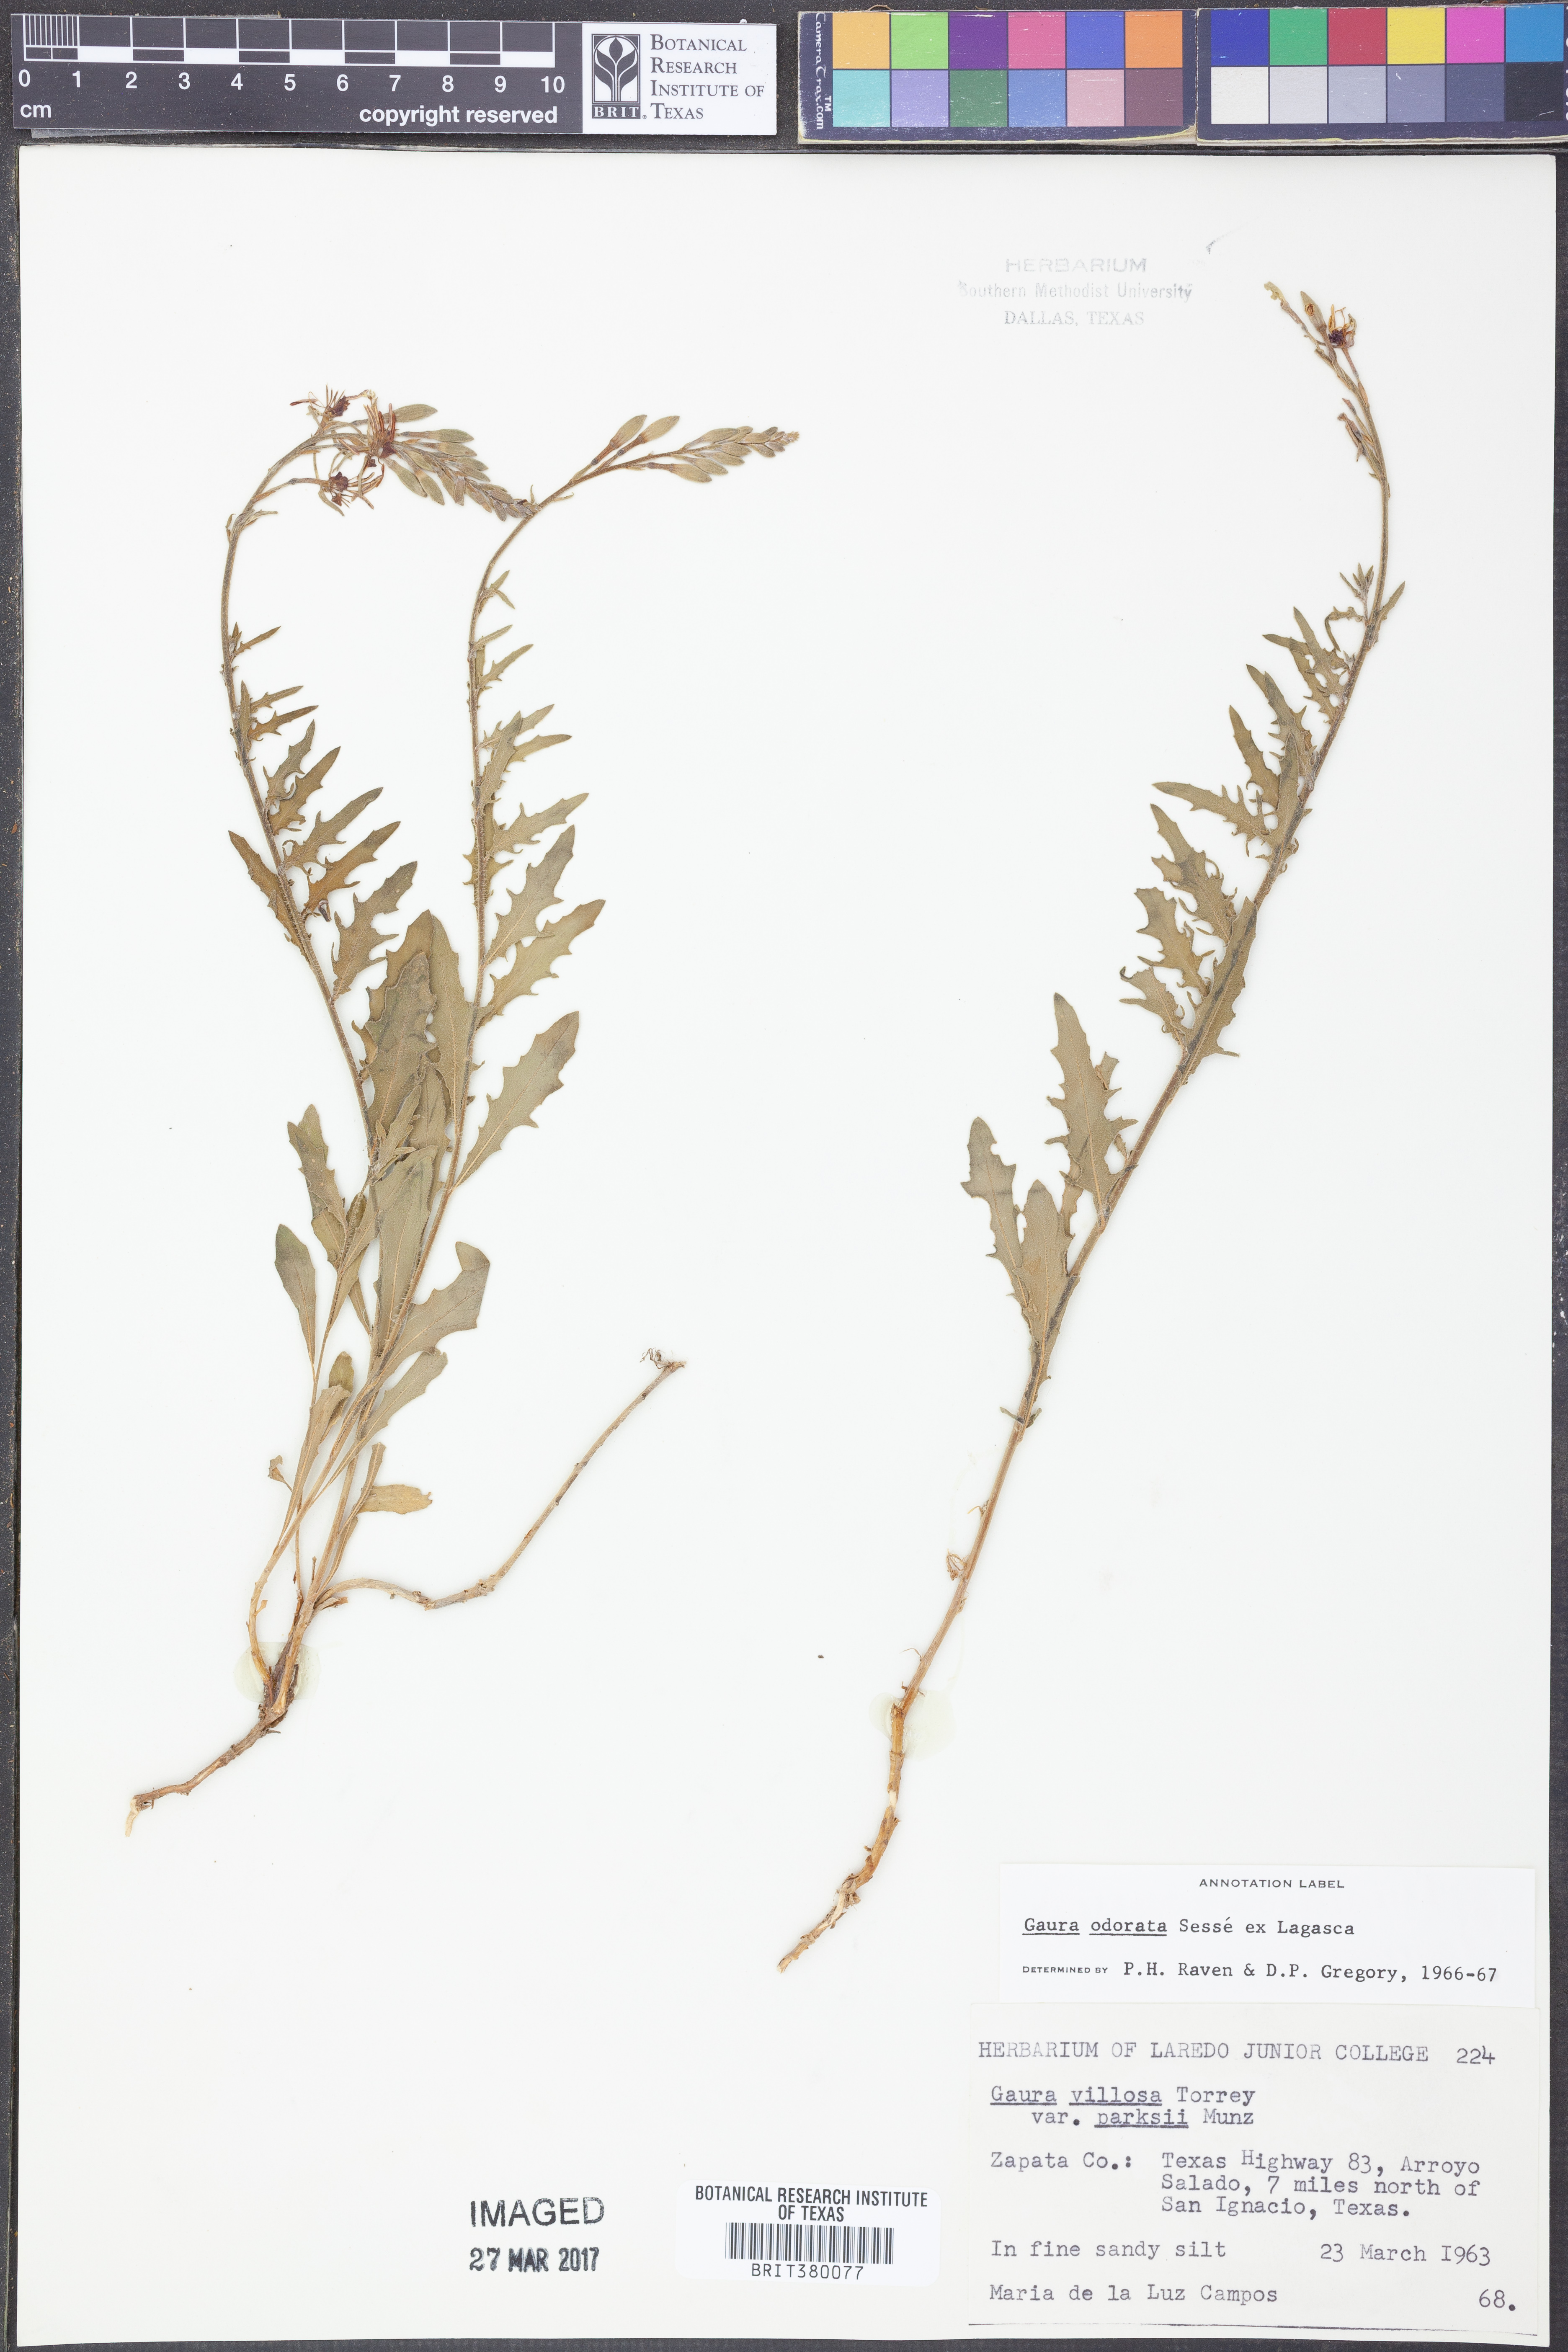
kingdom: Plantae
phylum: Tracheophyta
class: Magnoliopsida
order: Myrtales
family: Onagraceae
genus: Oenothera
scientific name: Oenothera
